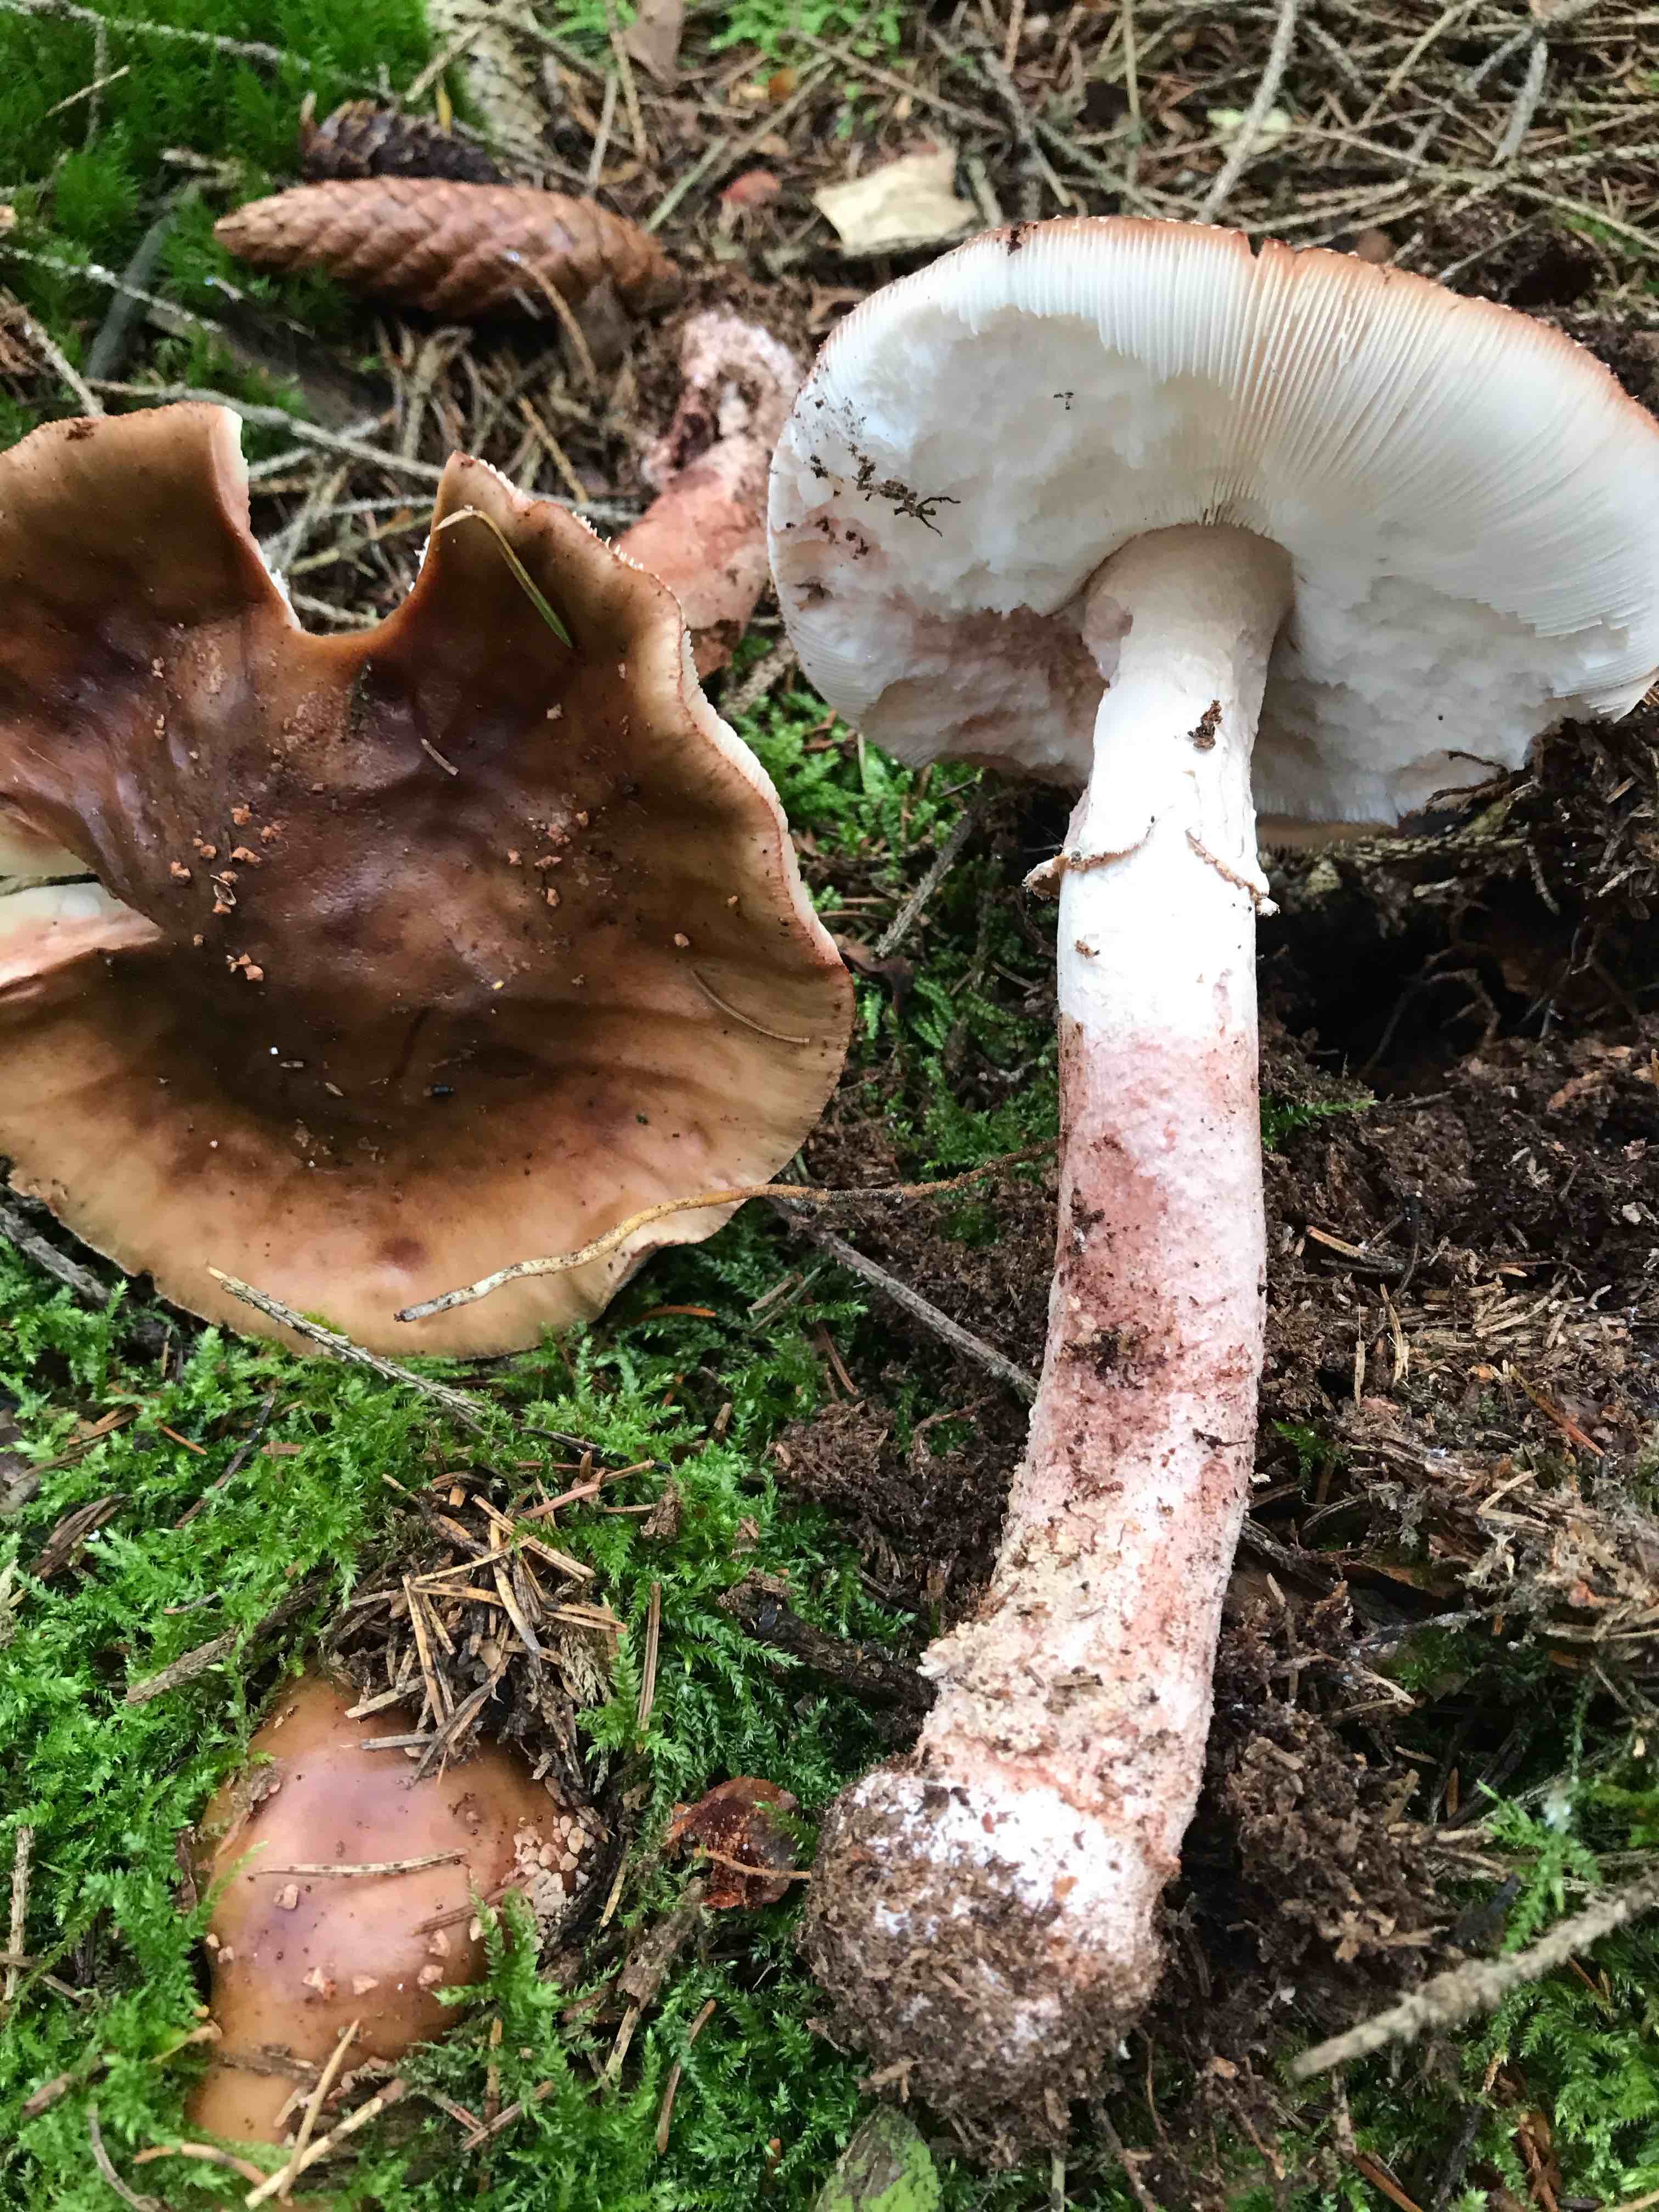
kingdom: Fungi
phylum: Basidiomycota
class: Agaricomycetes
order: Agaricales
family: Amanitaceae
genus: Amanita
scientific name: Amanita rubescens
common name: rødmende fluesvamp
